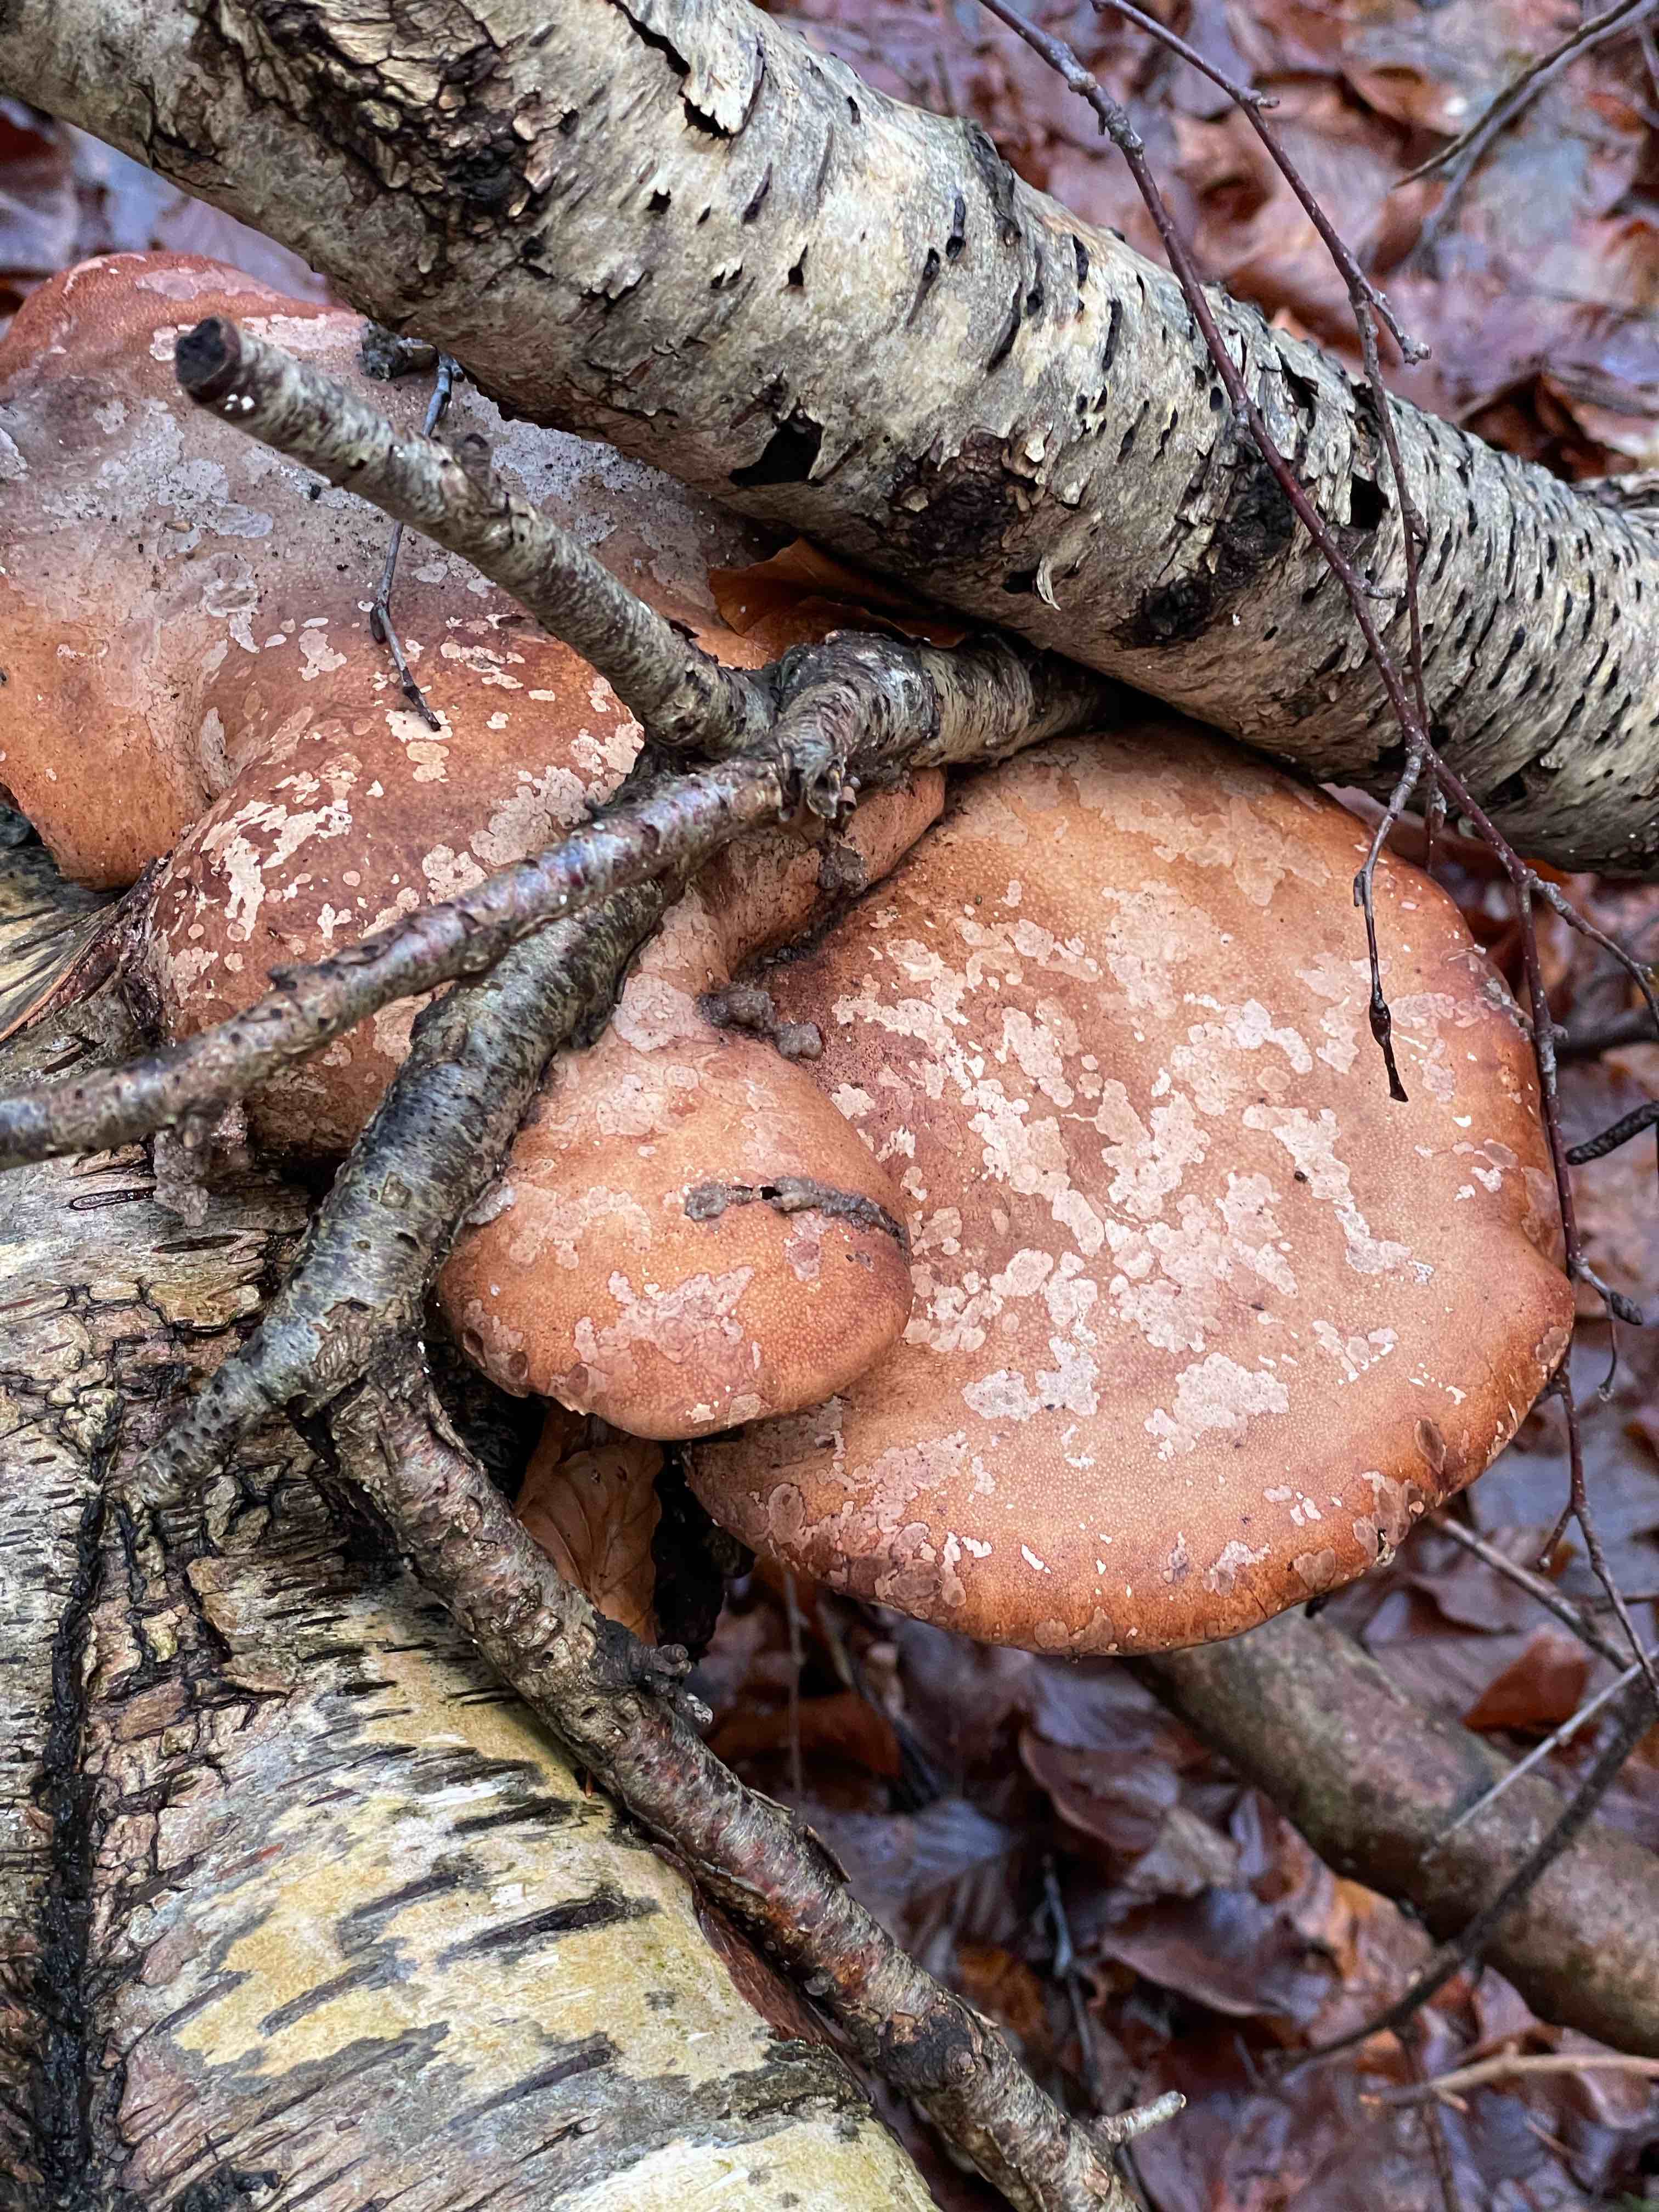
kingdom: Fungi
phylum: Basidiomycota
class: Agaricomycetes
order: Polyporales
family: Fomitopsidaceae
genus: Fomitopsis
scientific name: Fomitopsis betulina
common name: birkeporesvamp
